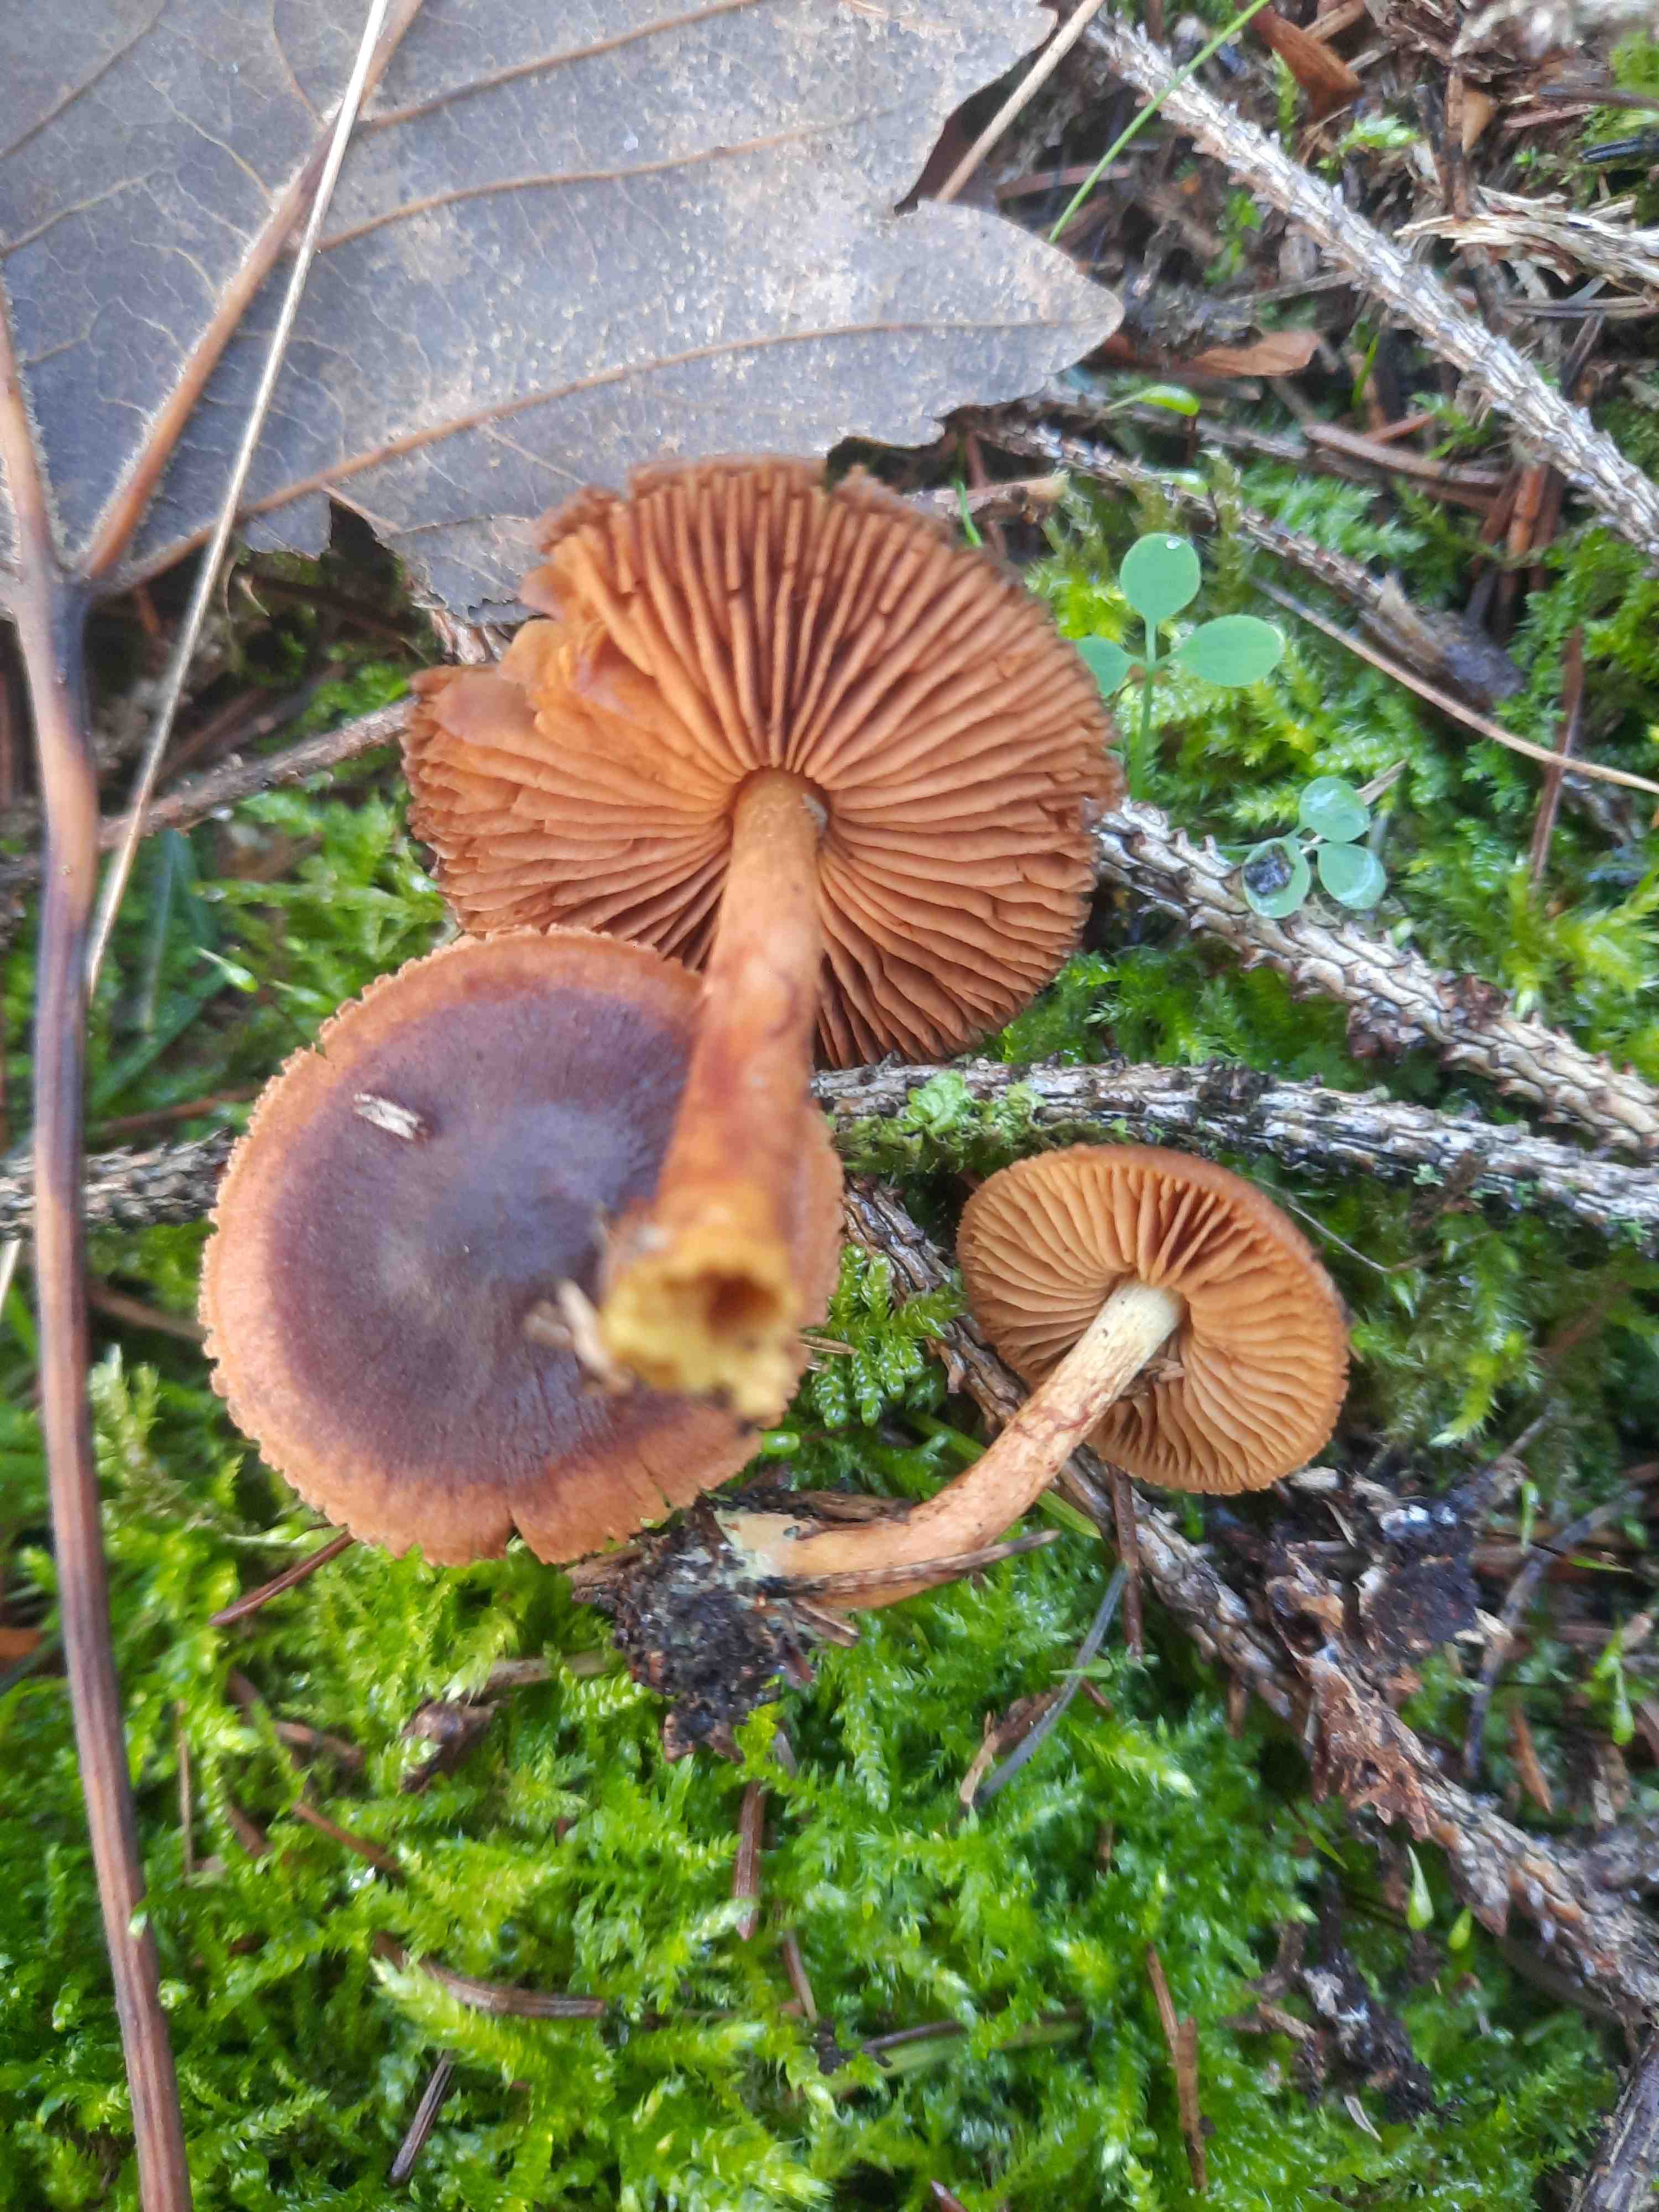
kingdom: Fungi
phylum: Basidiomycota
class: Agaricomycetes
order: Agaricales
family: Cortinariaceae
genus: Cortinarius
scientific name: Cortinarius
